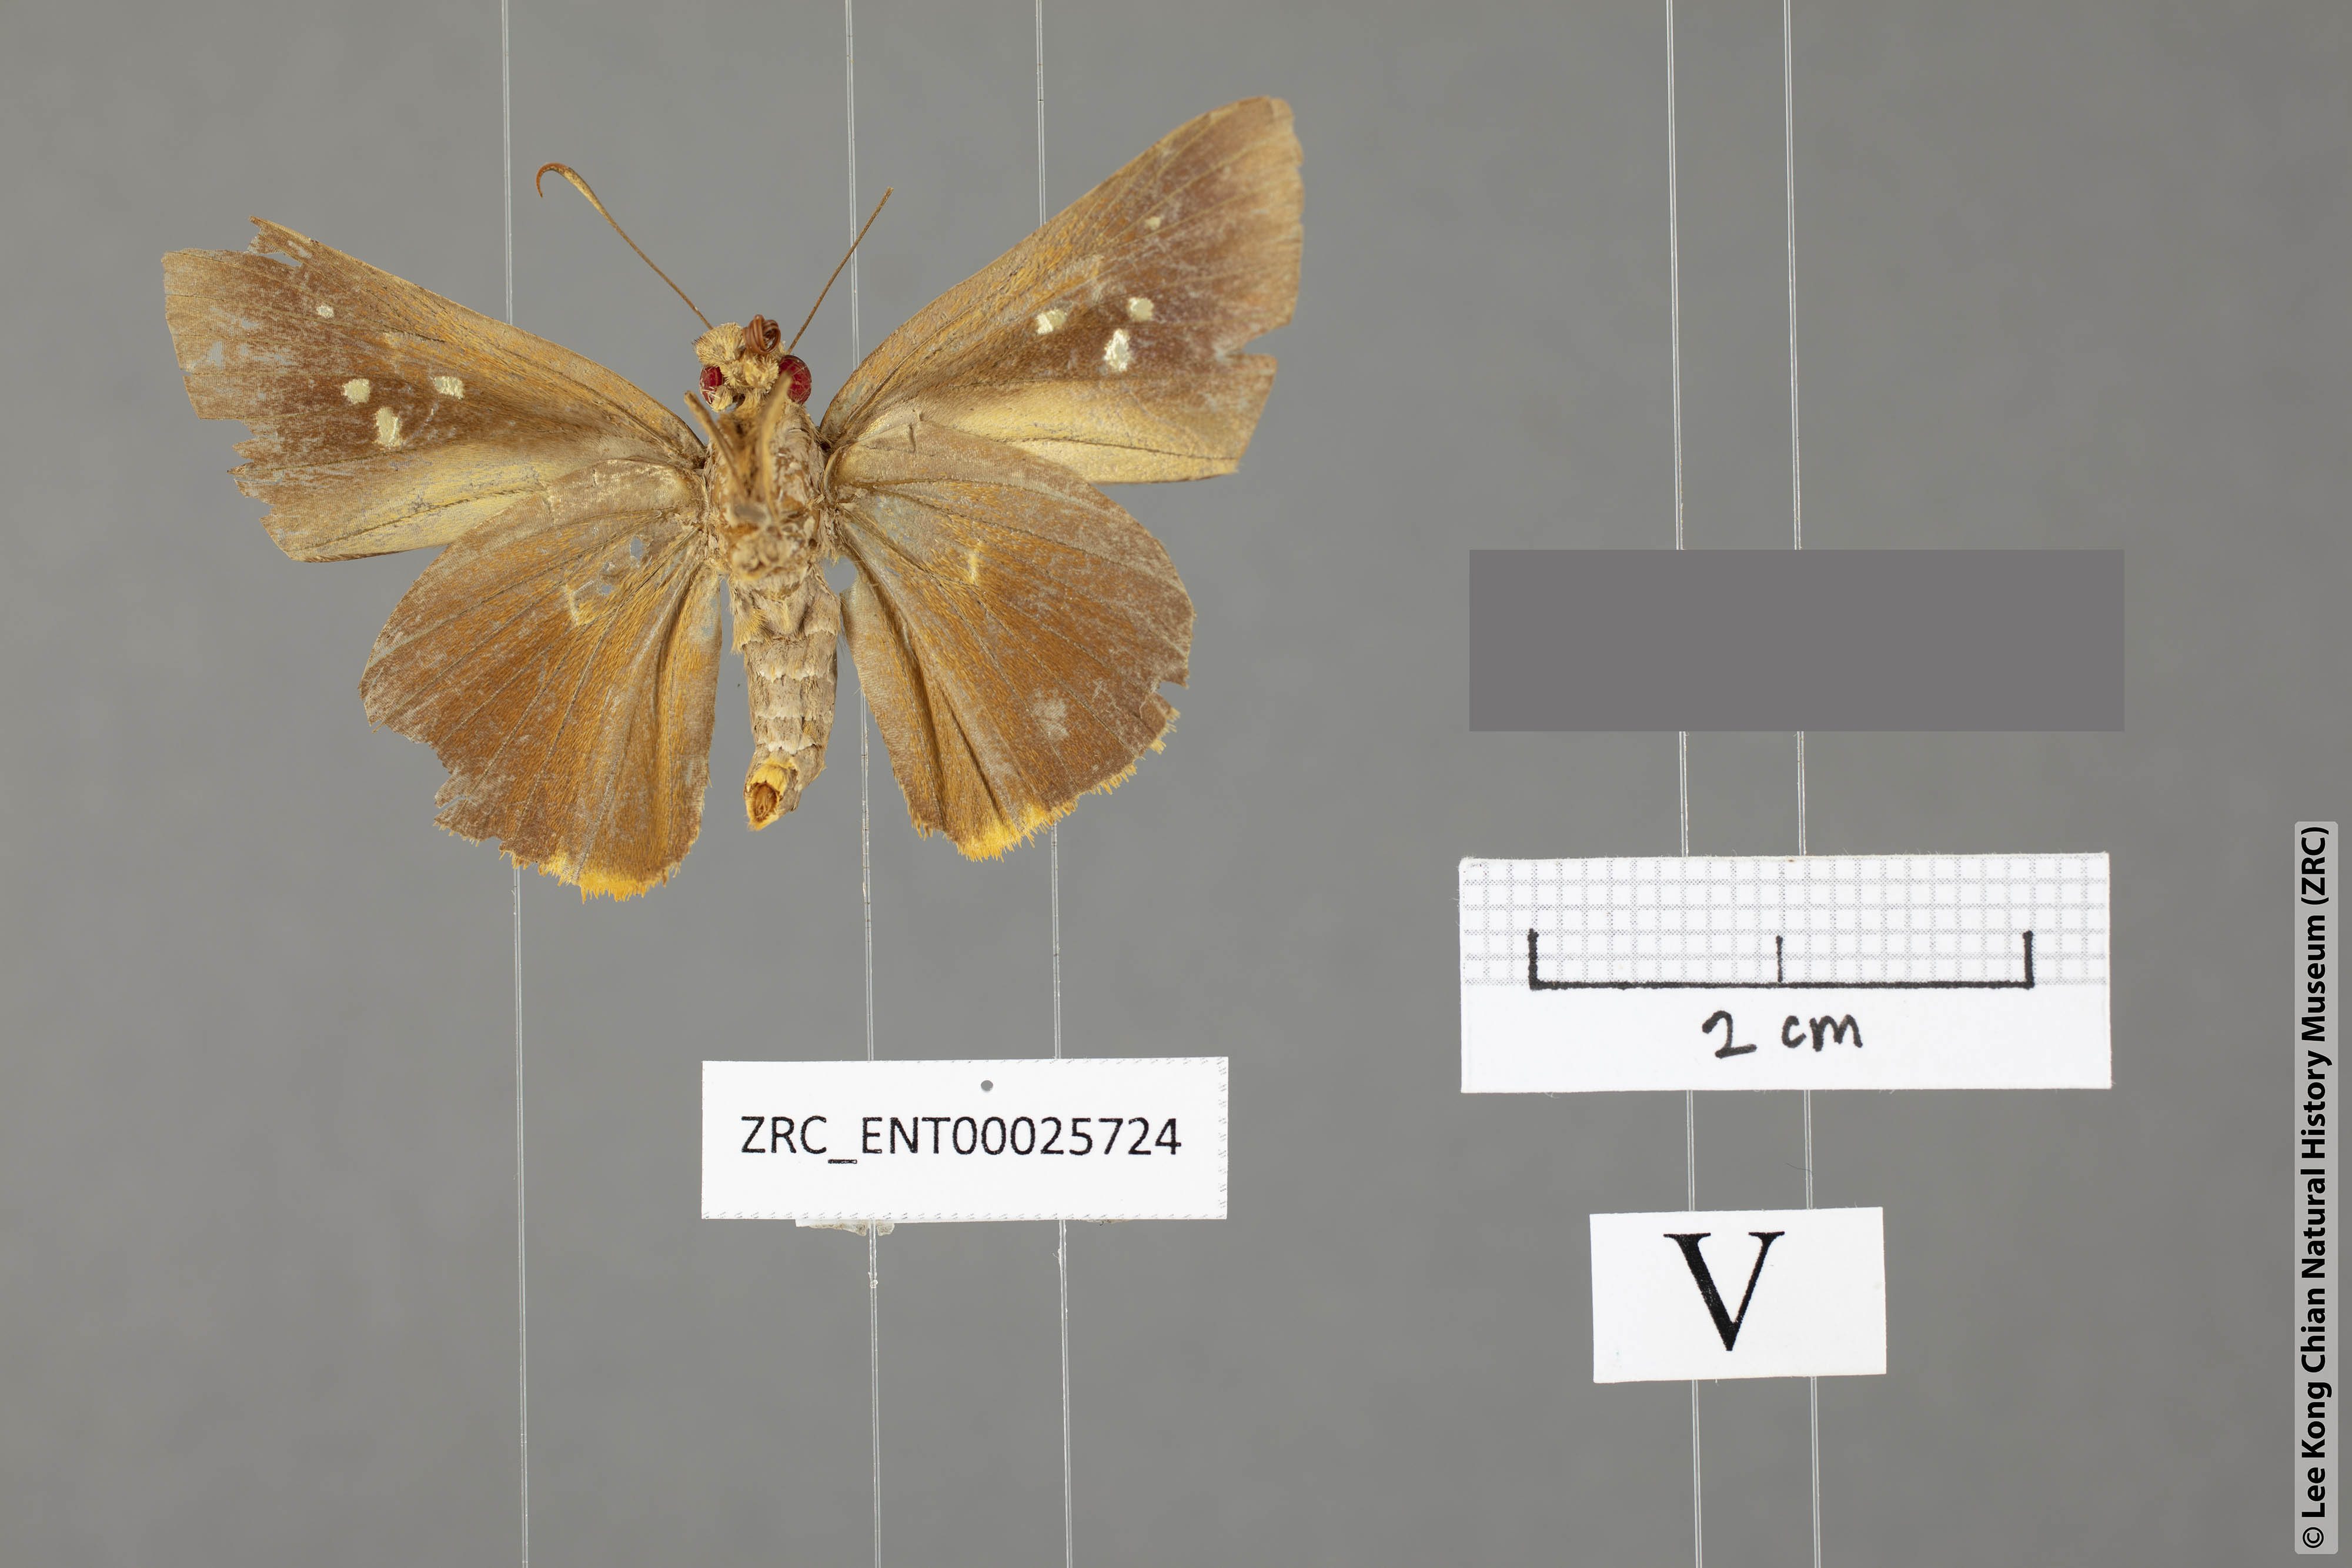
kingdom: Animalia
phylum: Arthropoda
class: Insecta
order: Lepidoptera
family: Hesperiidae
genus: Zela
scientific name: Zela zeus
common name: Orange-ciliate palmer
